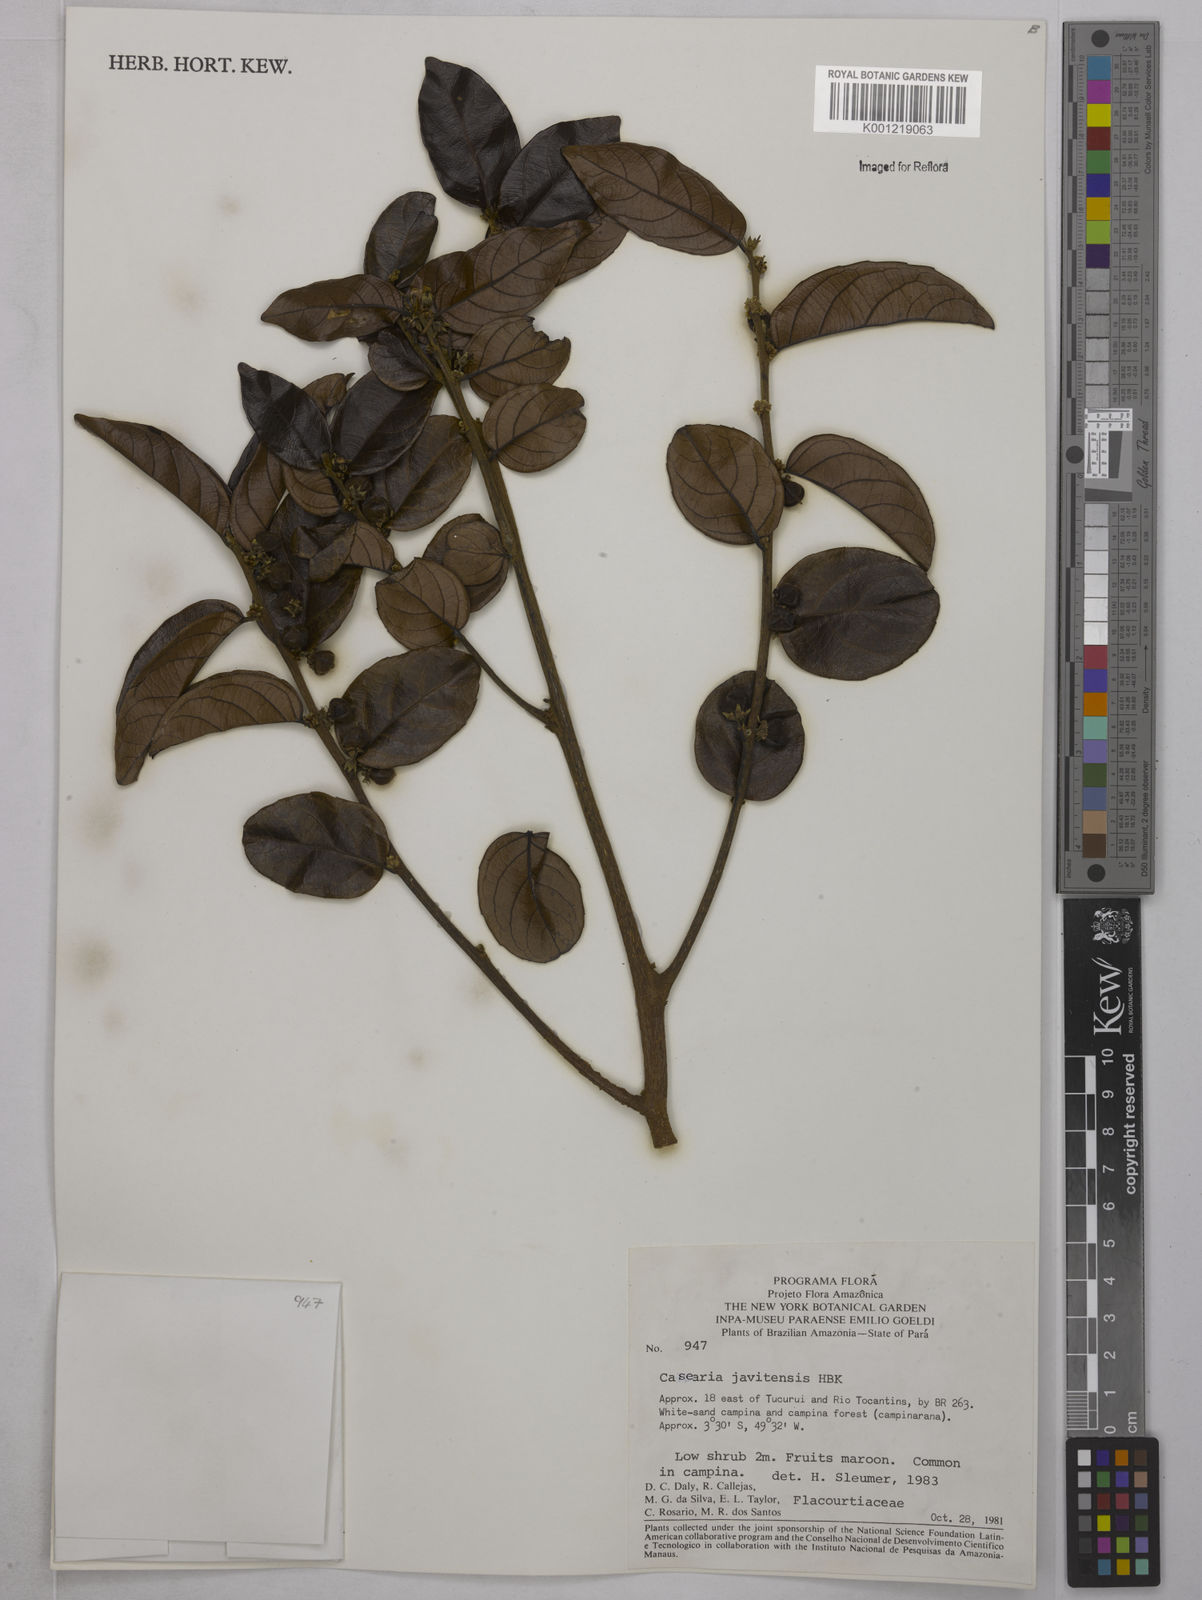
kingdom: Plantae
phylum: Tracheophyta
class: Magnoliopsida
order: Malpighiales
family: Salicaceae
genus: Piparea
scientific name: Piparea multiflora
